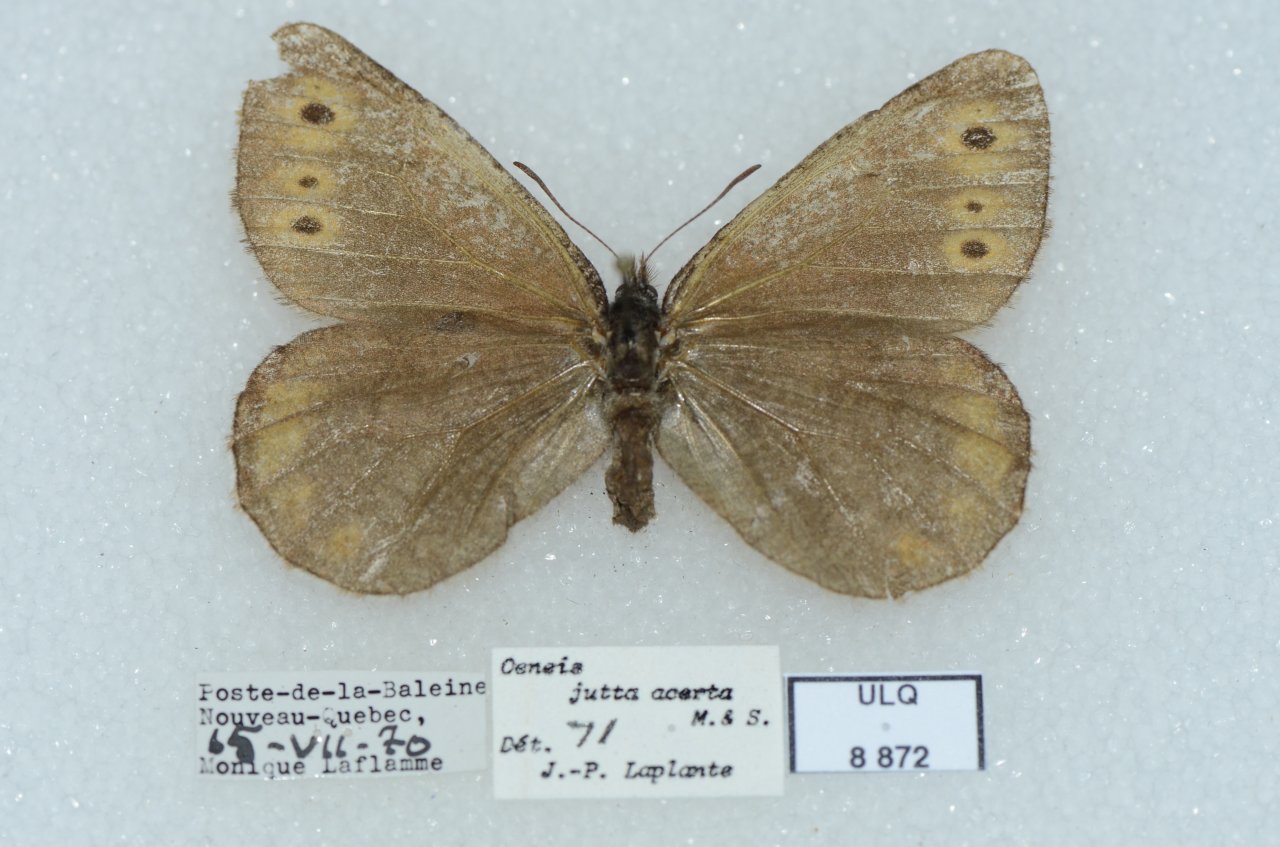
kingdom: Animalia
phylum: Arthropoda
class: Insecta
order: Lepidoptera
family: Nymphalidae
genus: Oeneis
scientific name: Oeneis jutta
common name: Jutta Arctic
